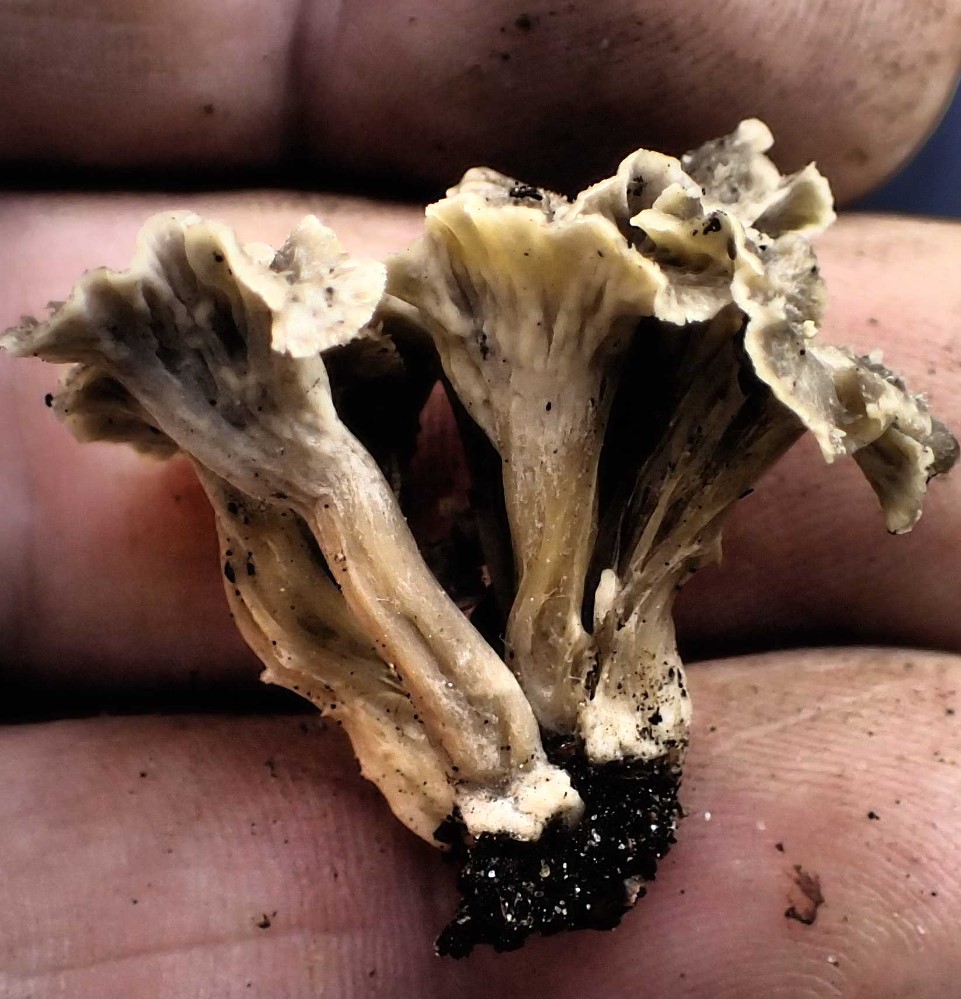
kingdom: Fungi
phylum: Basidiomycota
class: Agaricomycetes
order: Cantharellales
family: Hydnaceae
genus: Craterellus
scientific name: Craterellus undulatus
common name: liden kantarel
